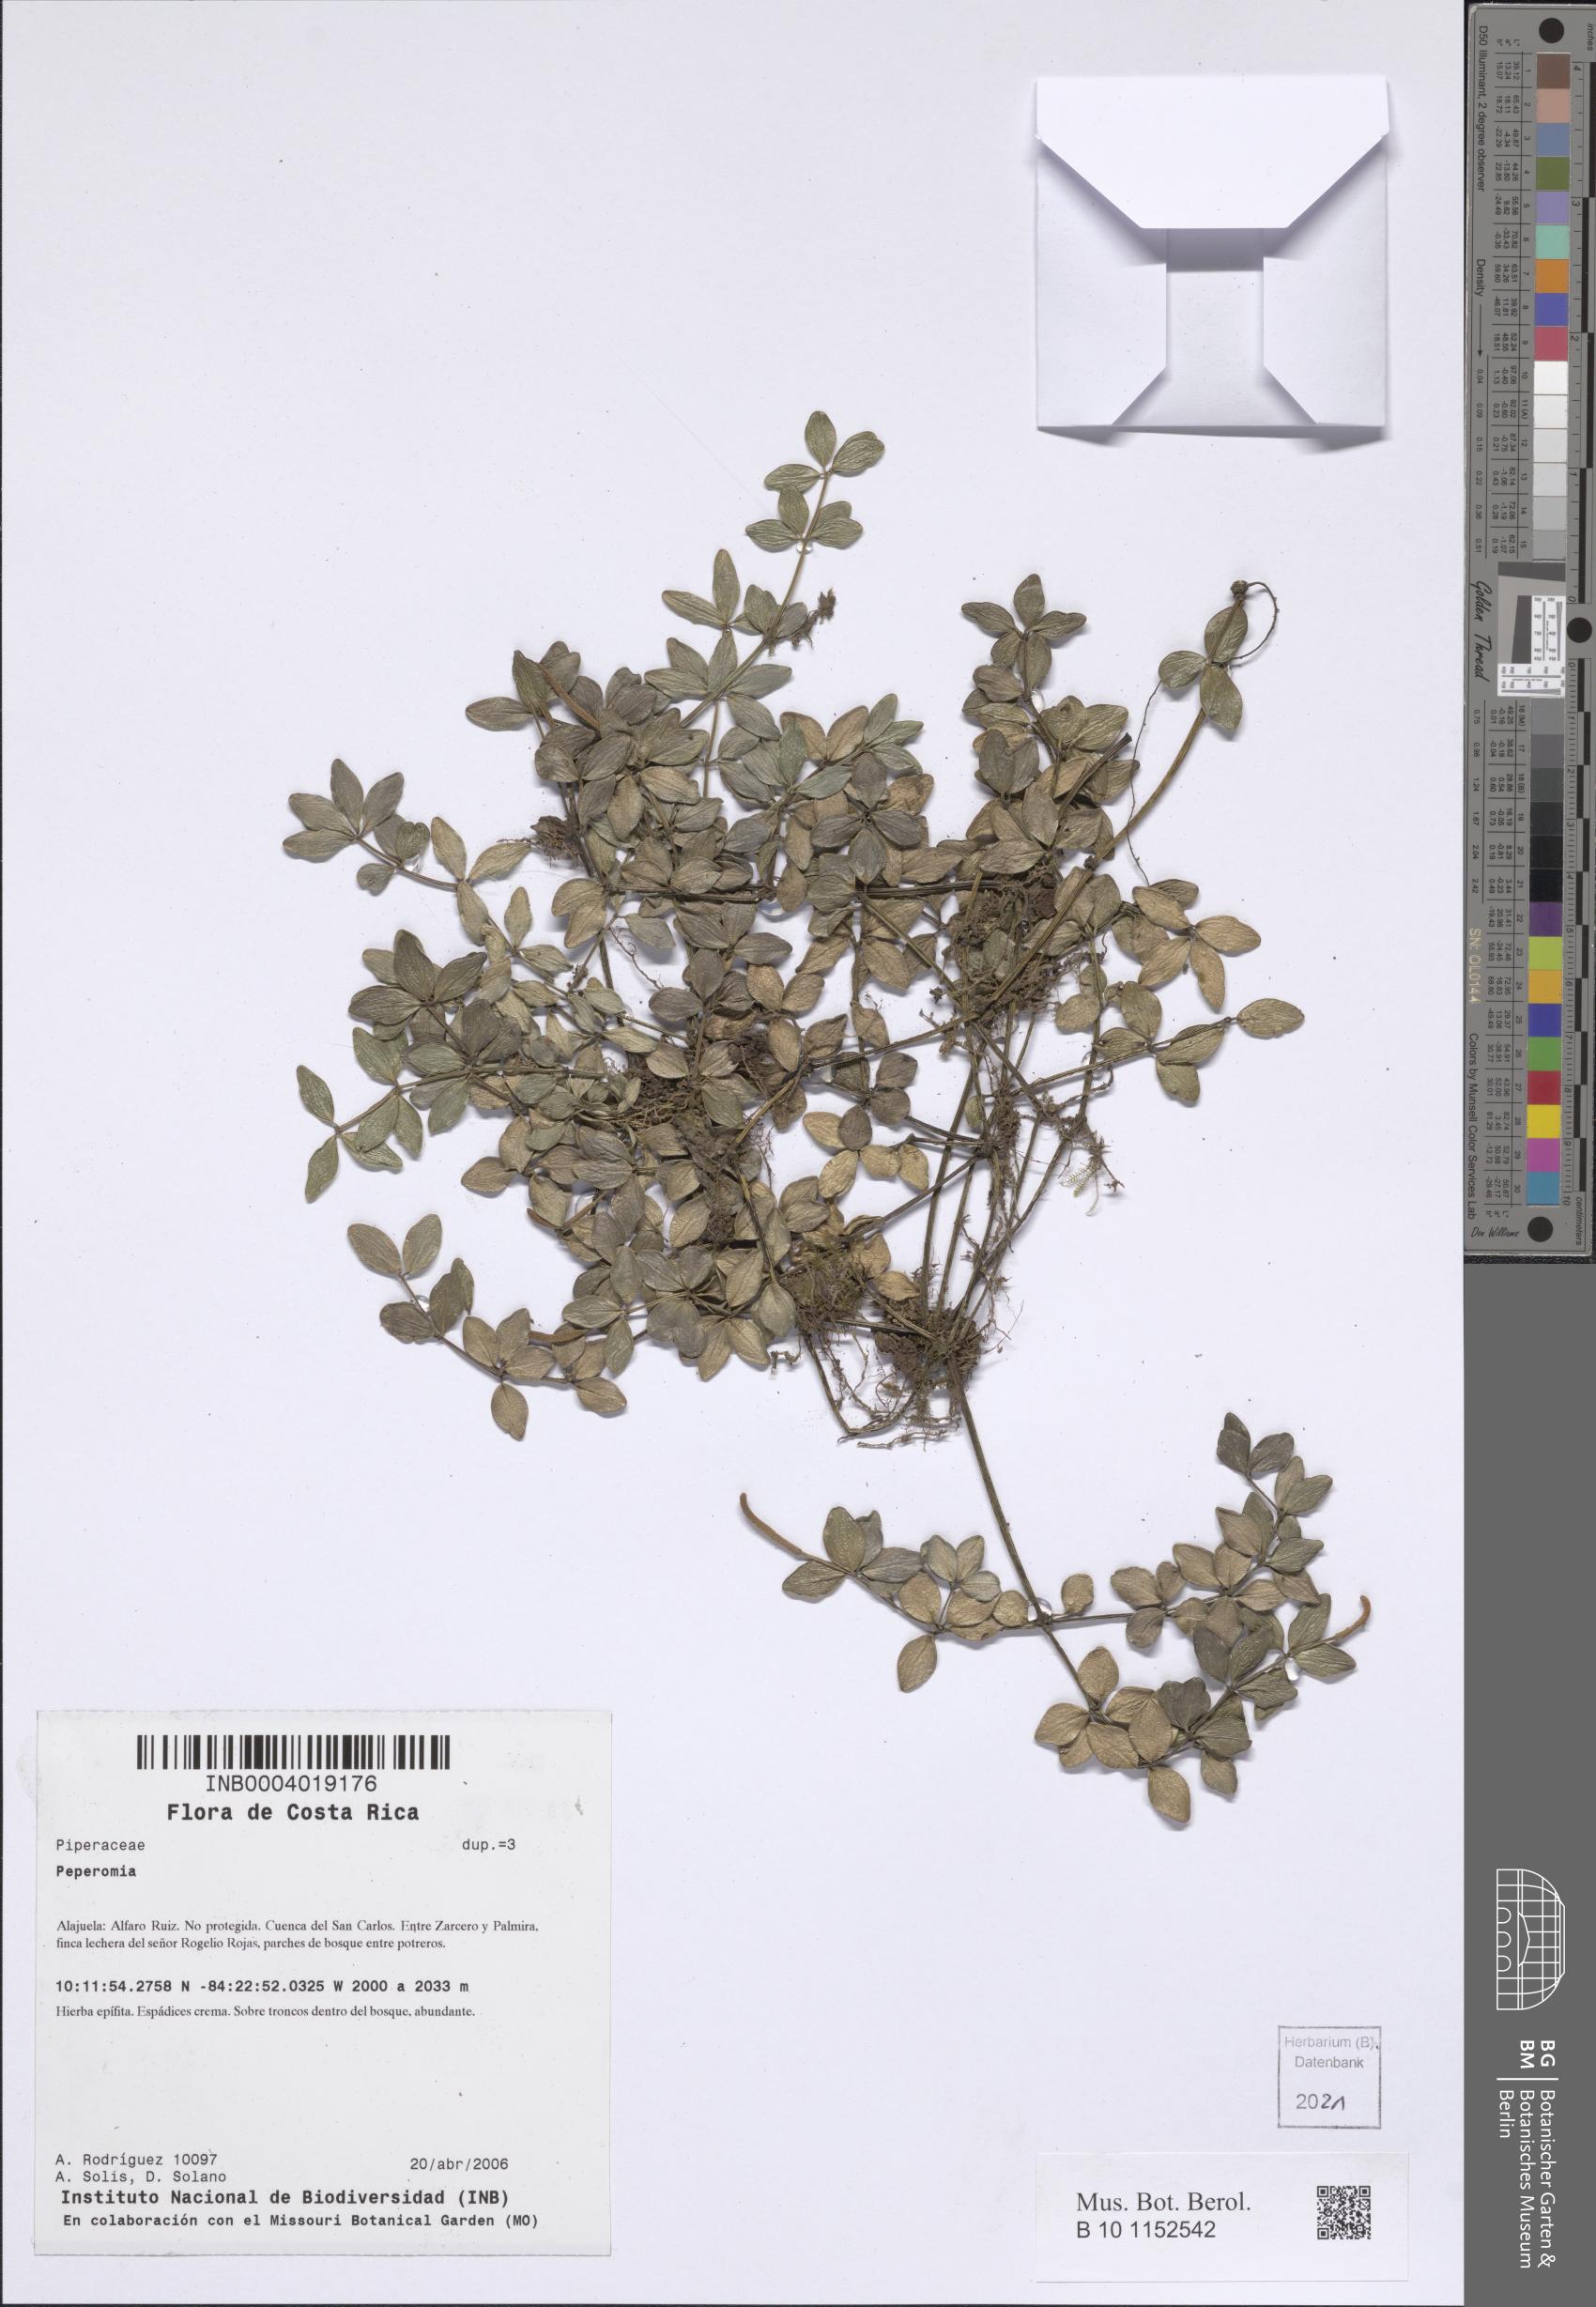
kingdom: Plantae
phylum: Tracheophyta
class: Magnoliopsida
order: Piperales
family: Piperaceae
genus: Peperomia
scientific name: Peperomia
